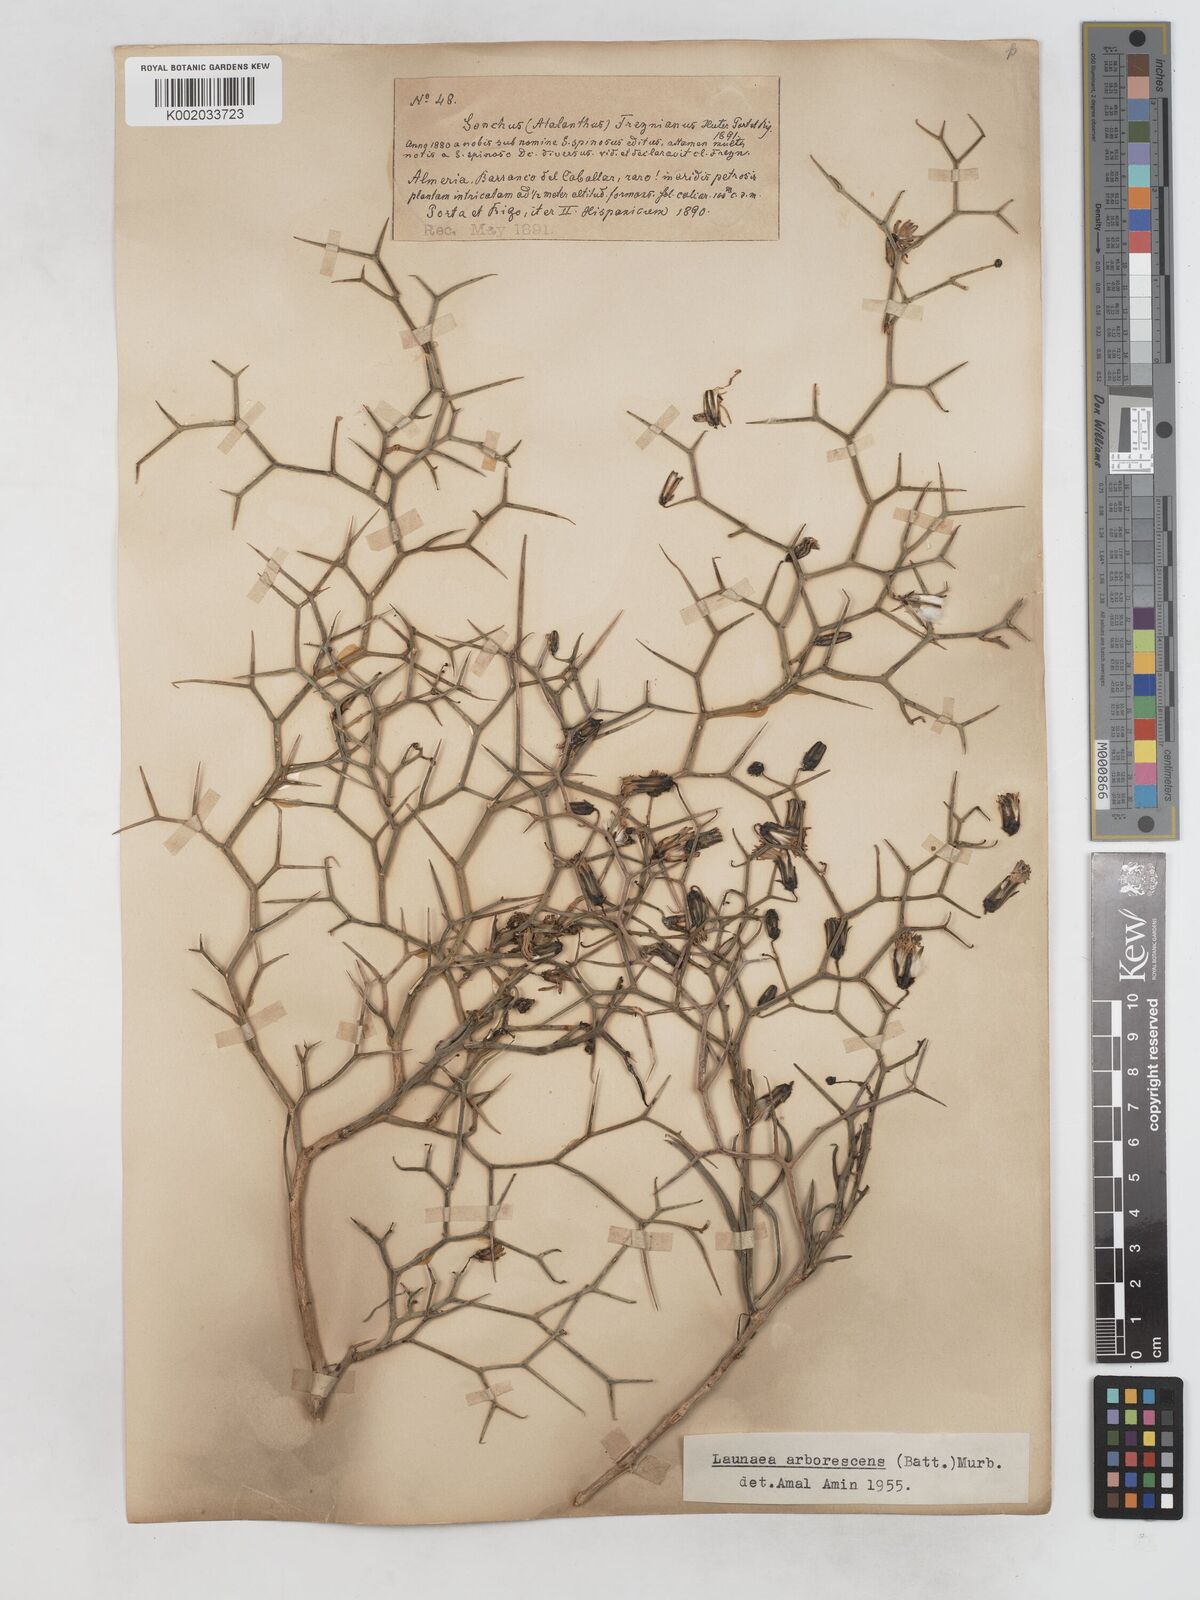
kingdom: Plantae
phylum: Tracheophyta
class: Magnoliopsida
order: Asterales
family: Asteraceae
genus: Launaea
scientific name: Launaea arborescens
